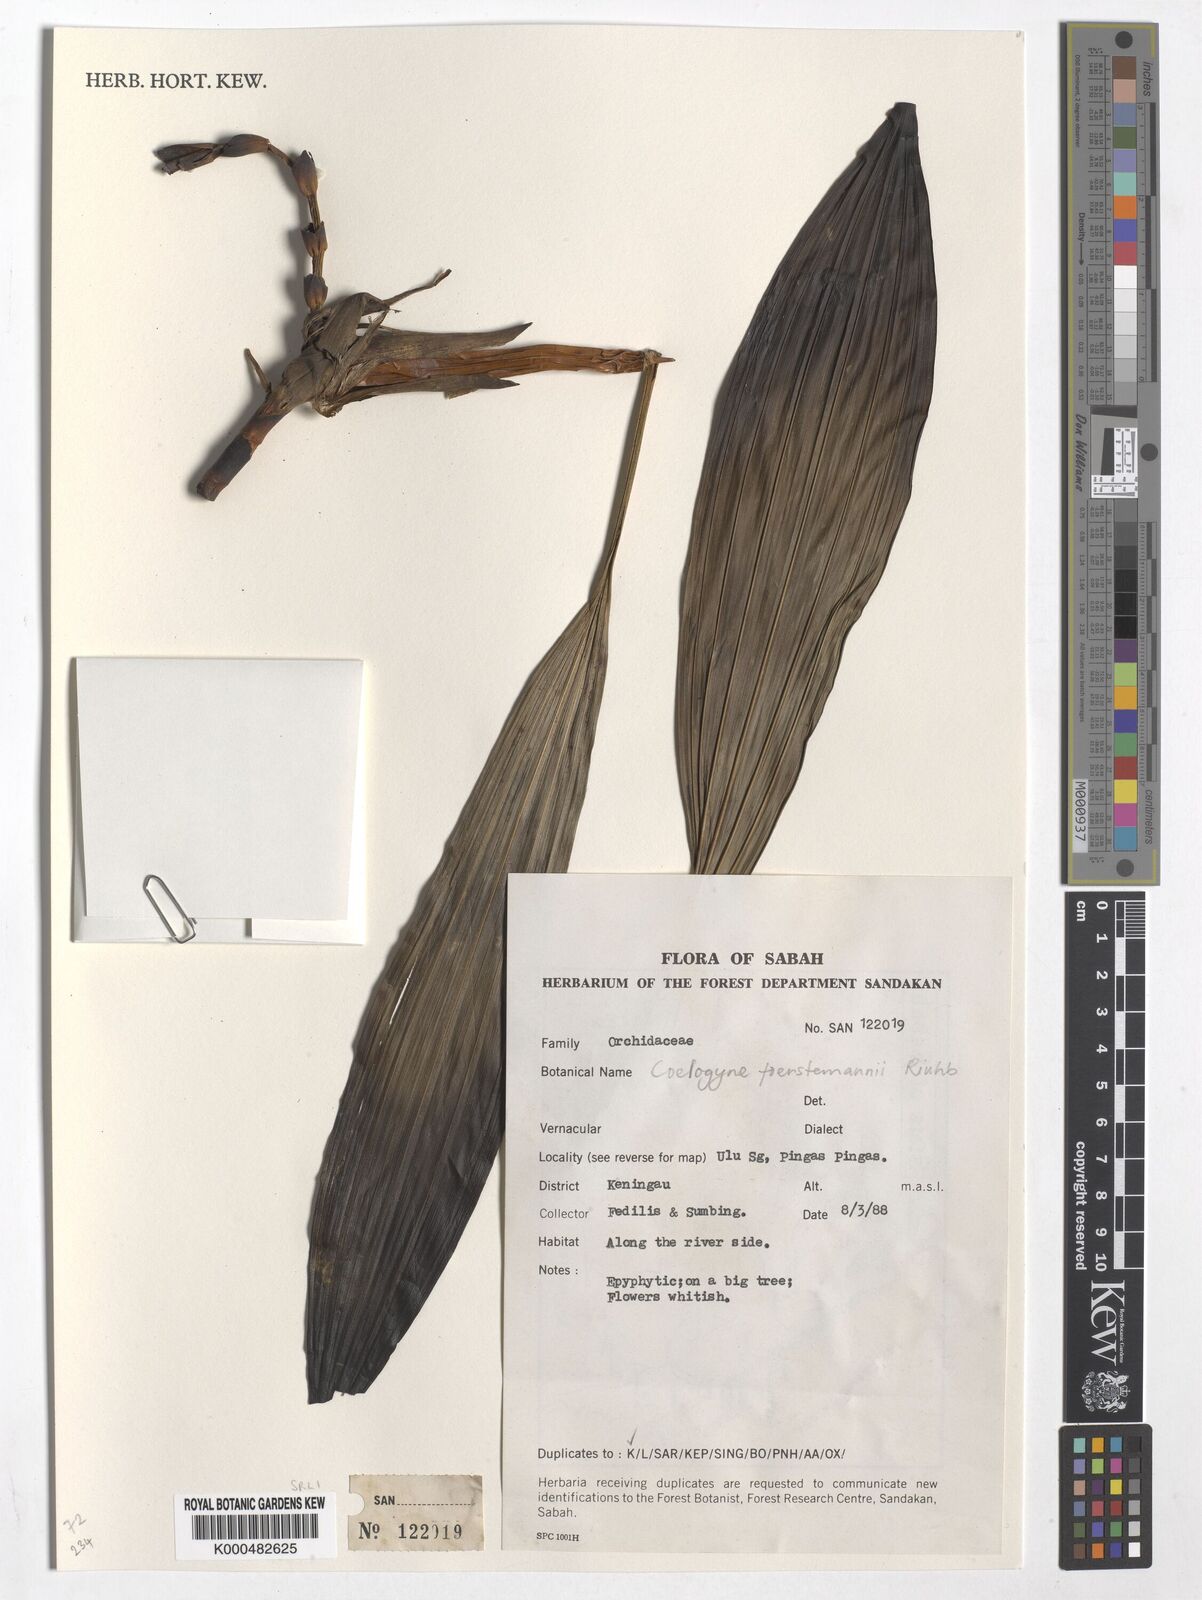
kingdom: Plantae
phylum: Tracheophyta
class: Liliopsida
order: Asparagales
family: Orchidaceae
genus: Coelogyne
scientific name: Coelogyne
